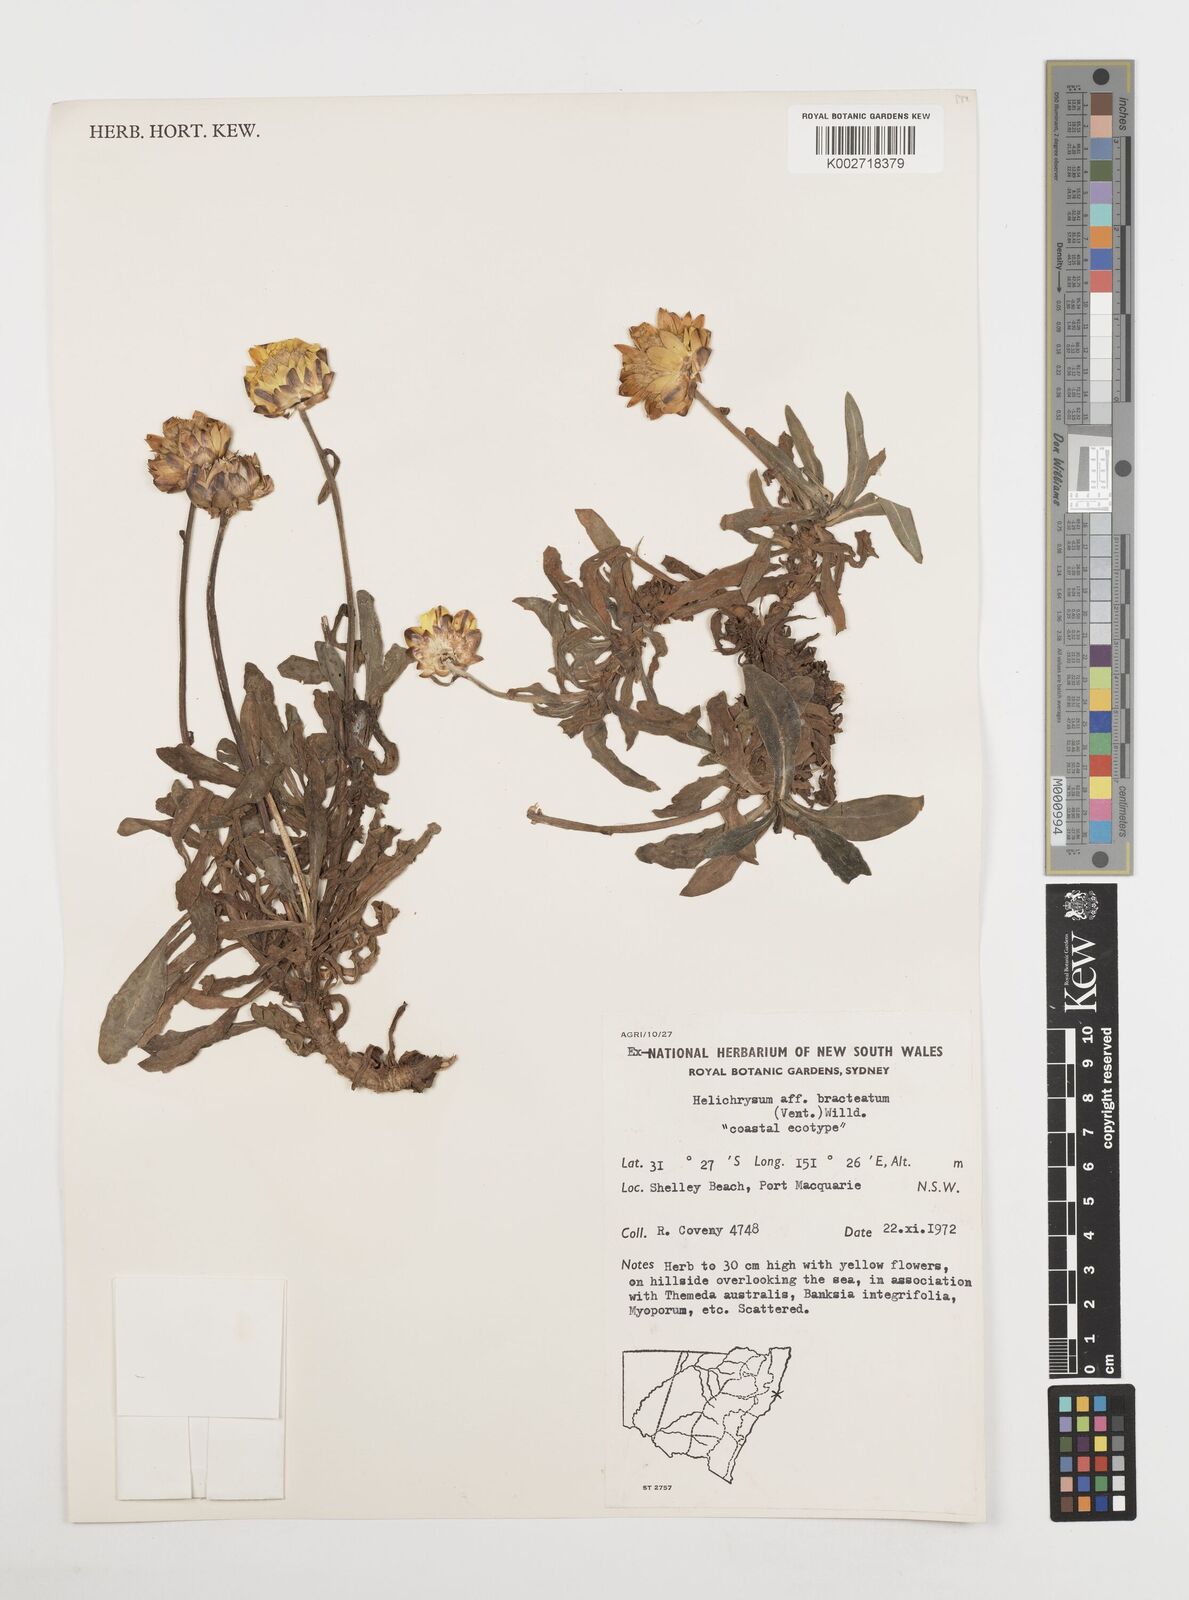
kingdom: Plantae
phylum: Tracheophyta
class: Magnoliopsida
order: Asterales
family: Asteraceae
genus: Xerochrysum
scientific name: Xerochrysum bracteatum
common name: Bracted strawflower
